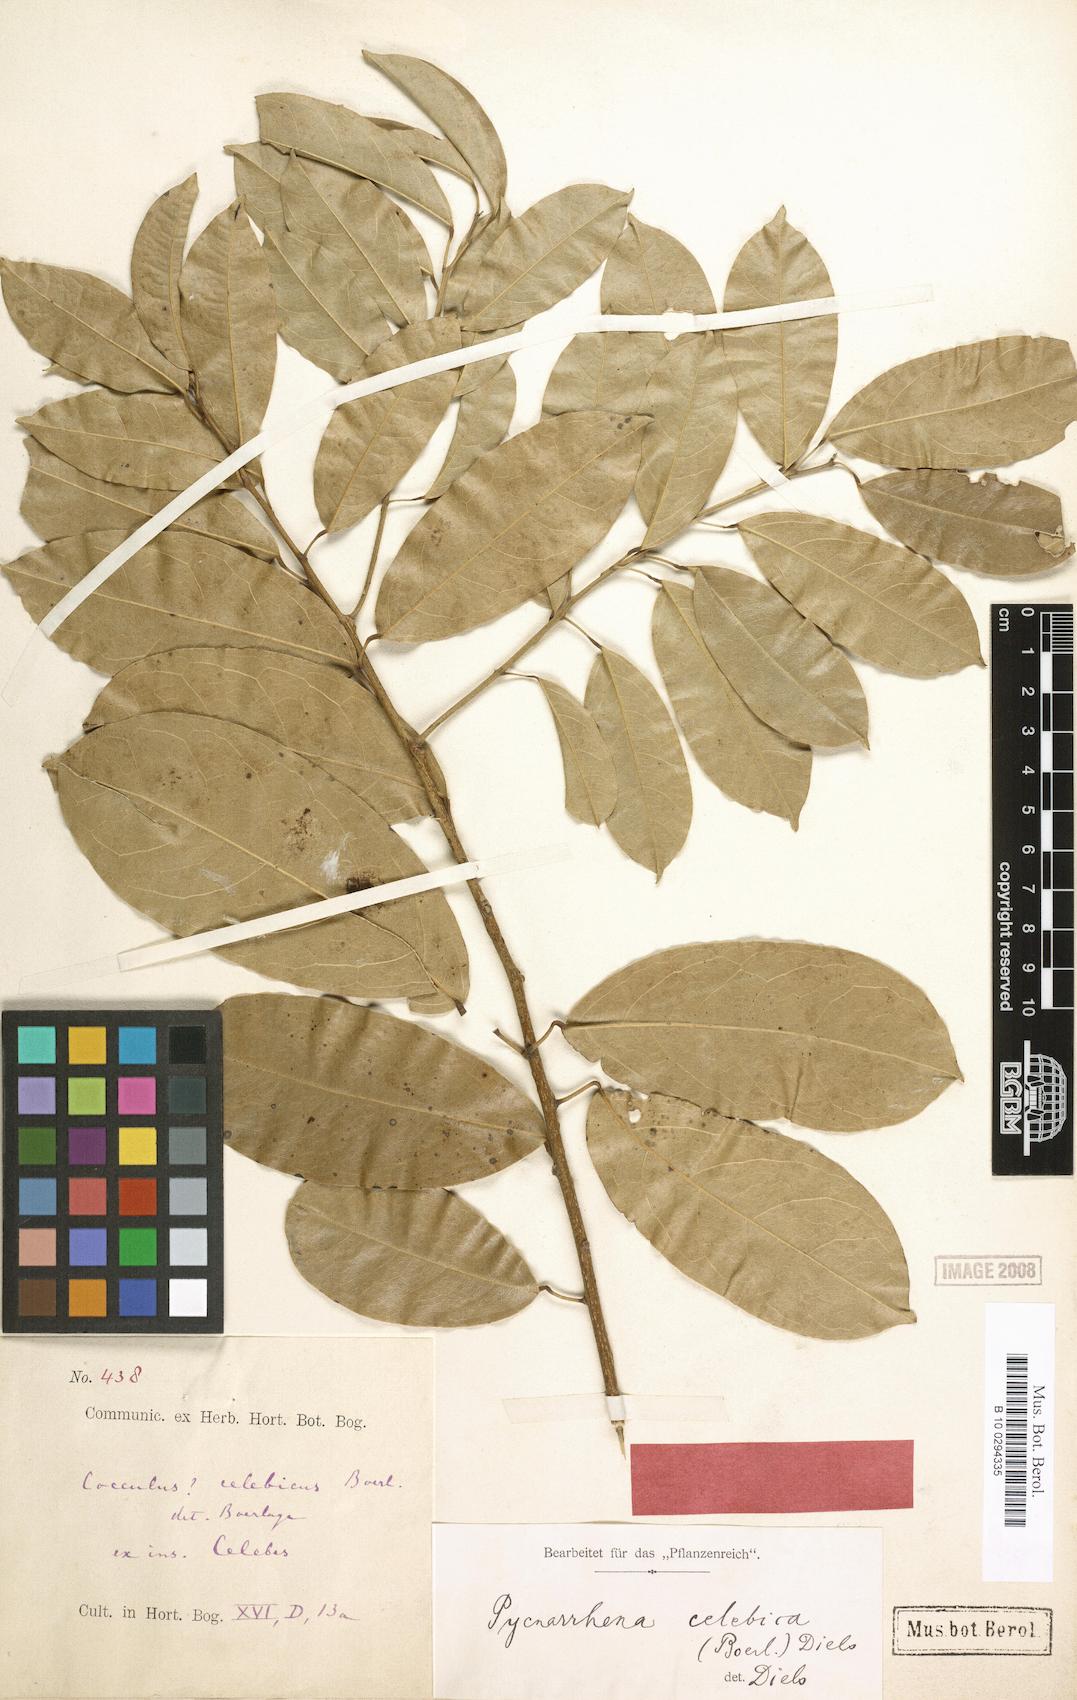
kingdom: Plantae
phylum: Tracheophyta
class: Magnoliopsida
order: Ranunculales
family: Menispermaceae
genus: Pycnarrhena
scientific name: Pycnarrhena tumefacta
